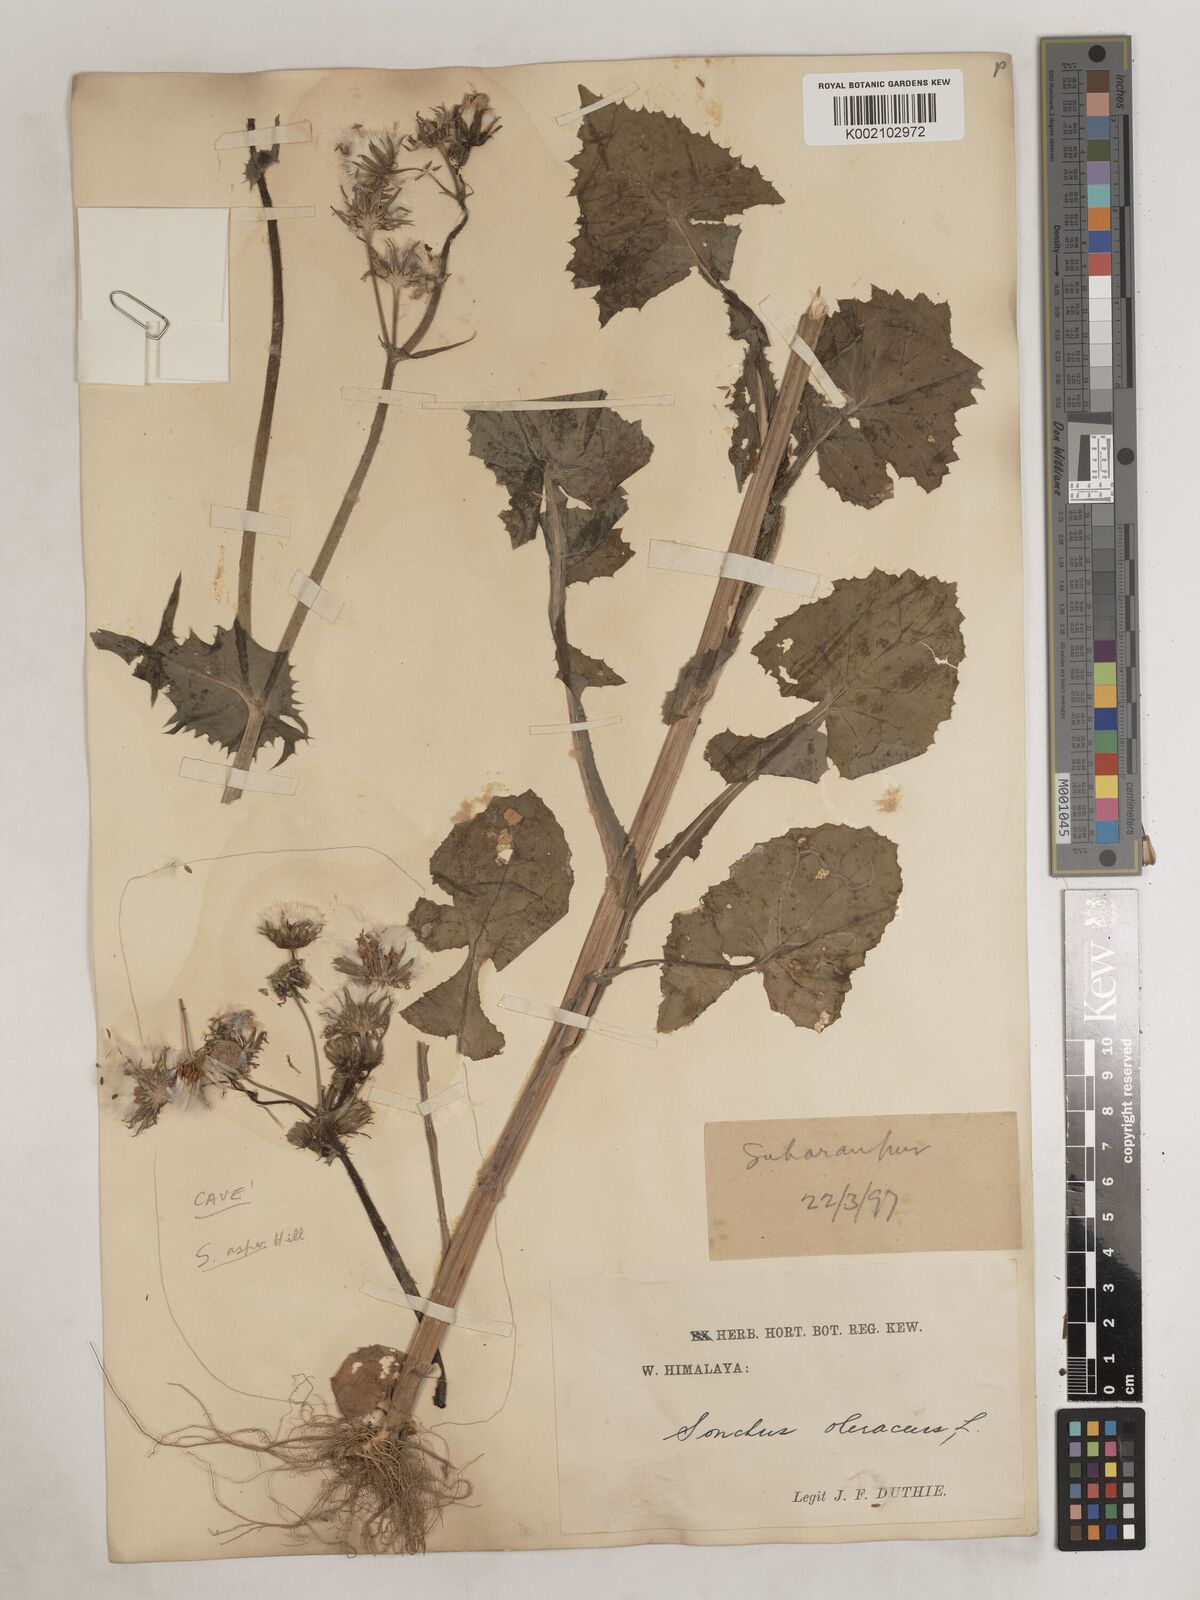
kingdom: Plantae
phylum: Tracheophyta
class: Magnoliopsida
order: Asterales
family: Asteraceae
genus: Sonchus
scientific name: Sonchus arvensis
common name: Perennial sow-thistle
